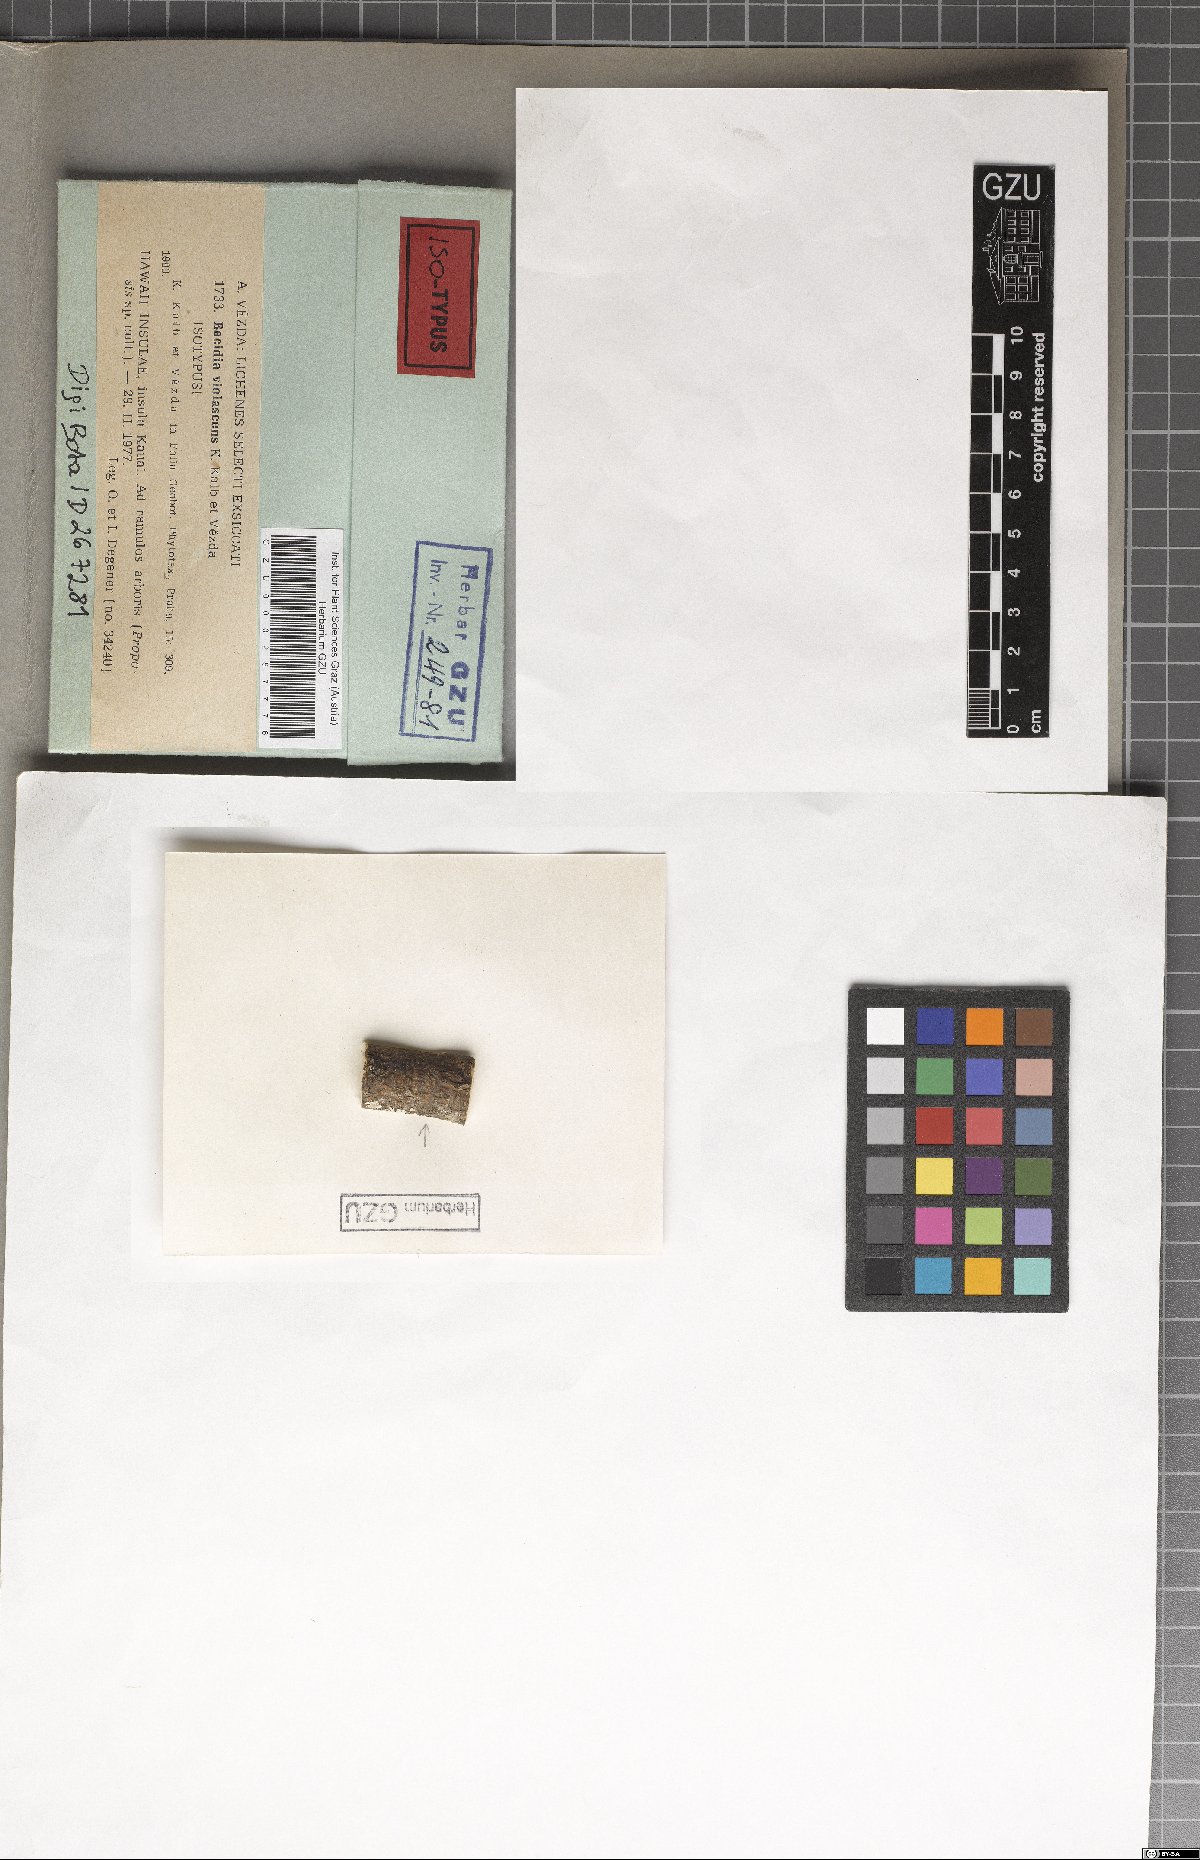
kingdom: Fungi
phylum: Ascomycota
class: Lecanoromycetes
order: Lecanorales
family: Ramalinaceae
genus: Mycobilimbia
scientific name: Mycobilimbia violascens
